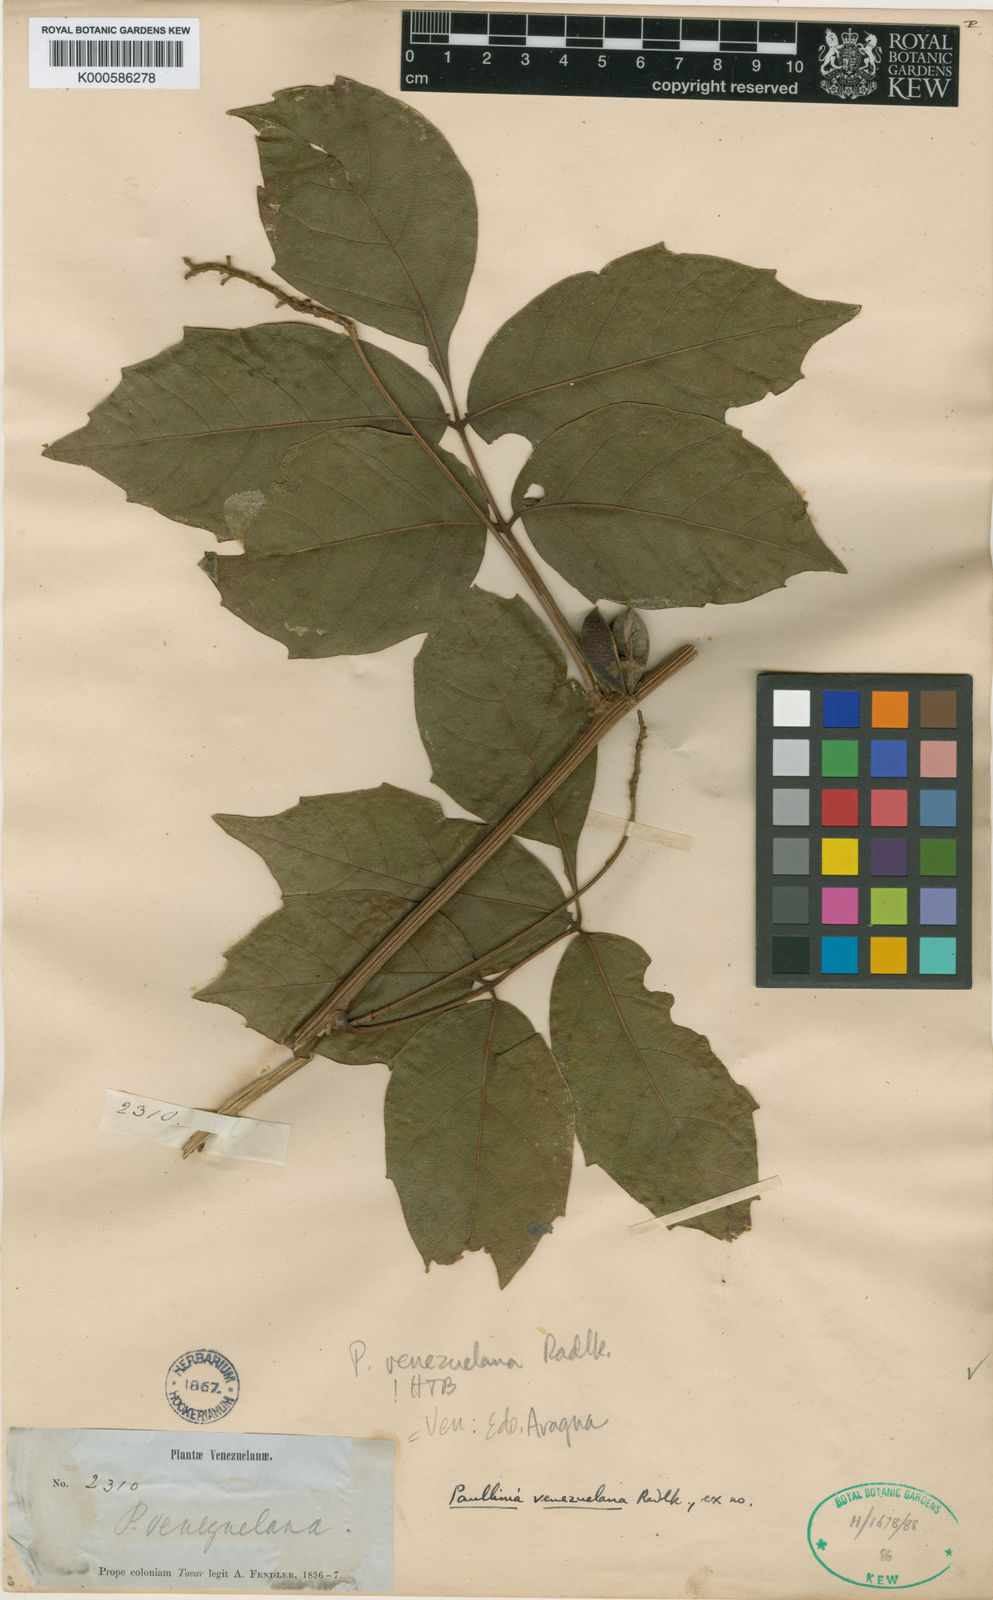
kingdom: Plantae
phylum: Tracheophyta
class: Magnoliopsida
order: Sapindales
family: Sapindaceae
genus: Paullinia
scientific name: Paullinia venezuelana
